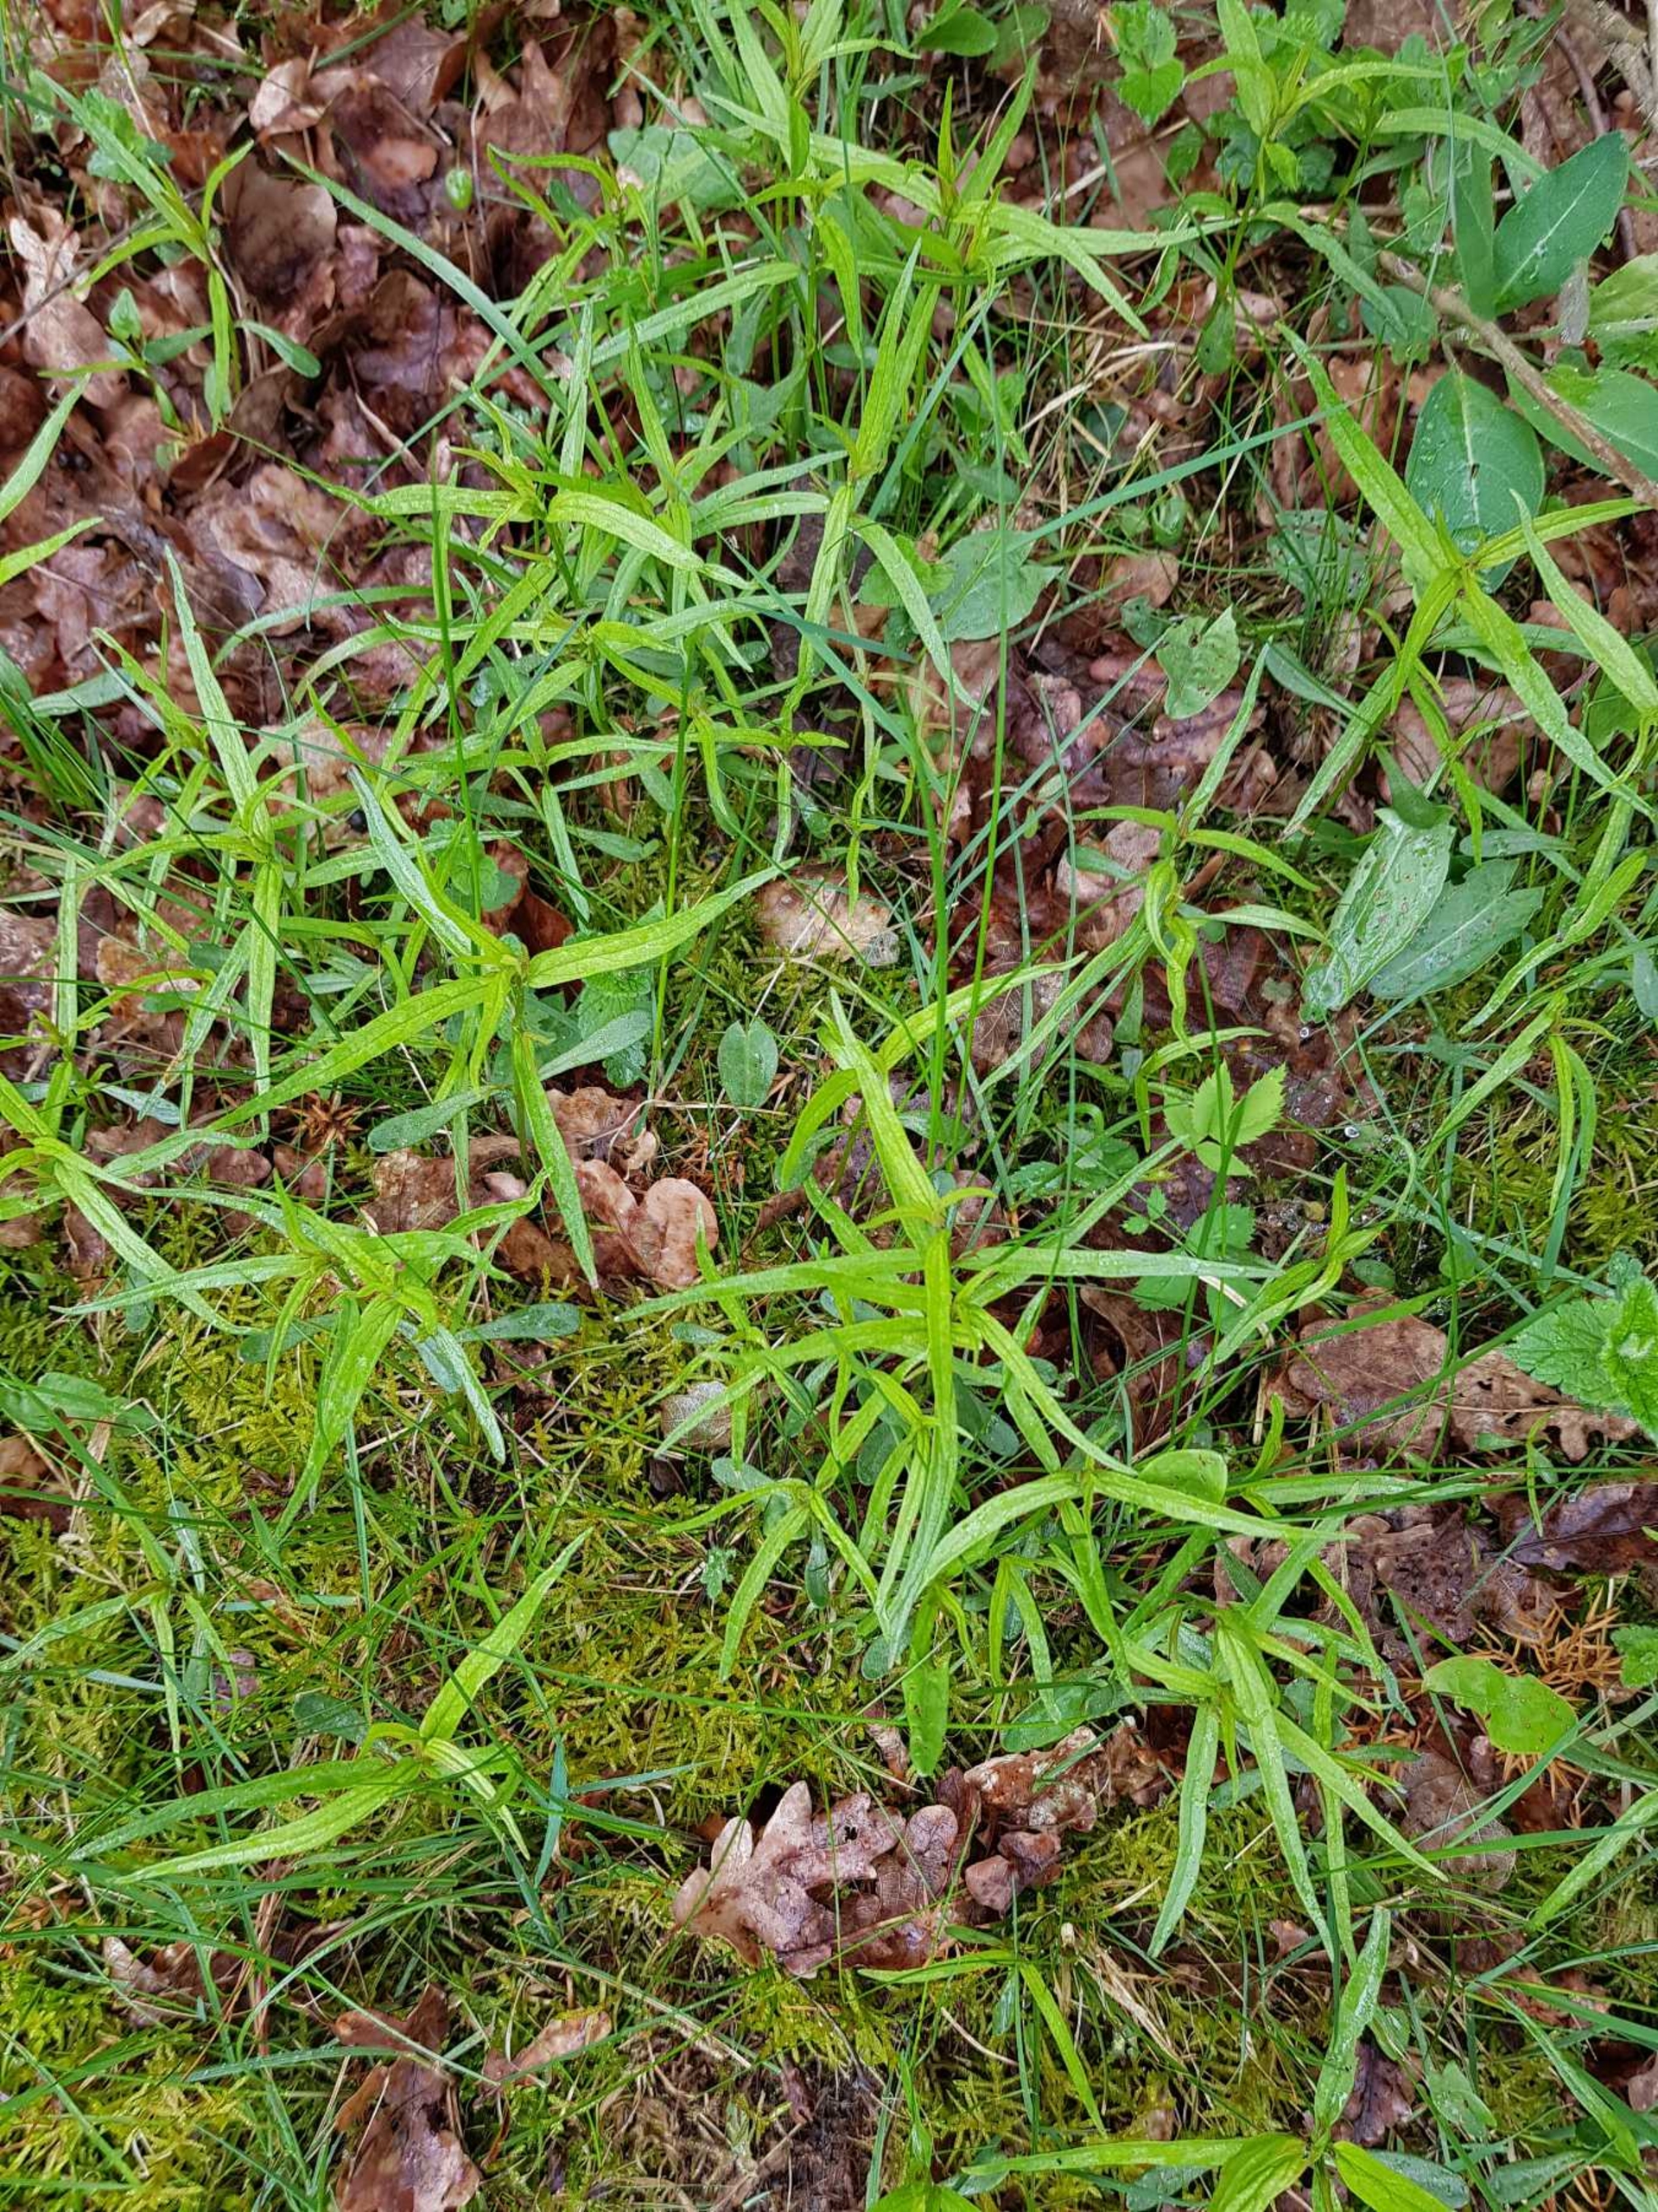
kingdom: Plantae
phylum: Tracheophyta
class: Magnoliopsida
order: Lamiales
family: Orobanchaceae
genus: Melampyrum
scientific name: Melampyrum pratense
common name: Almindelig kohvede
